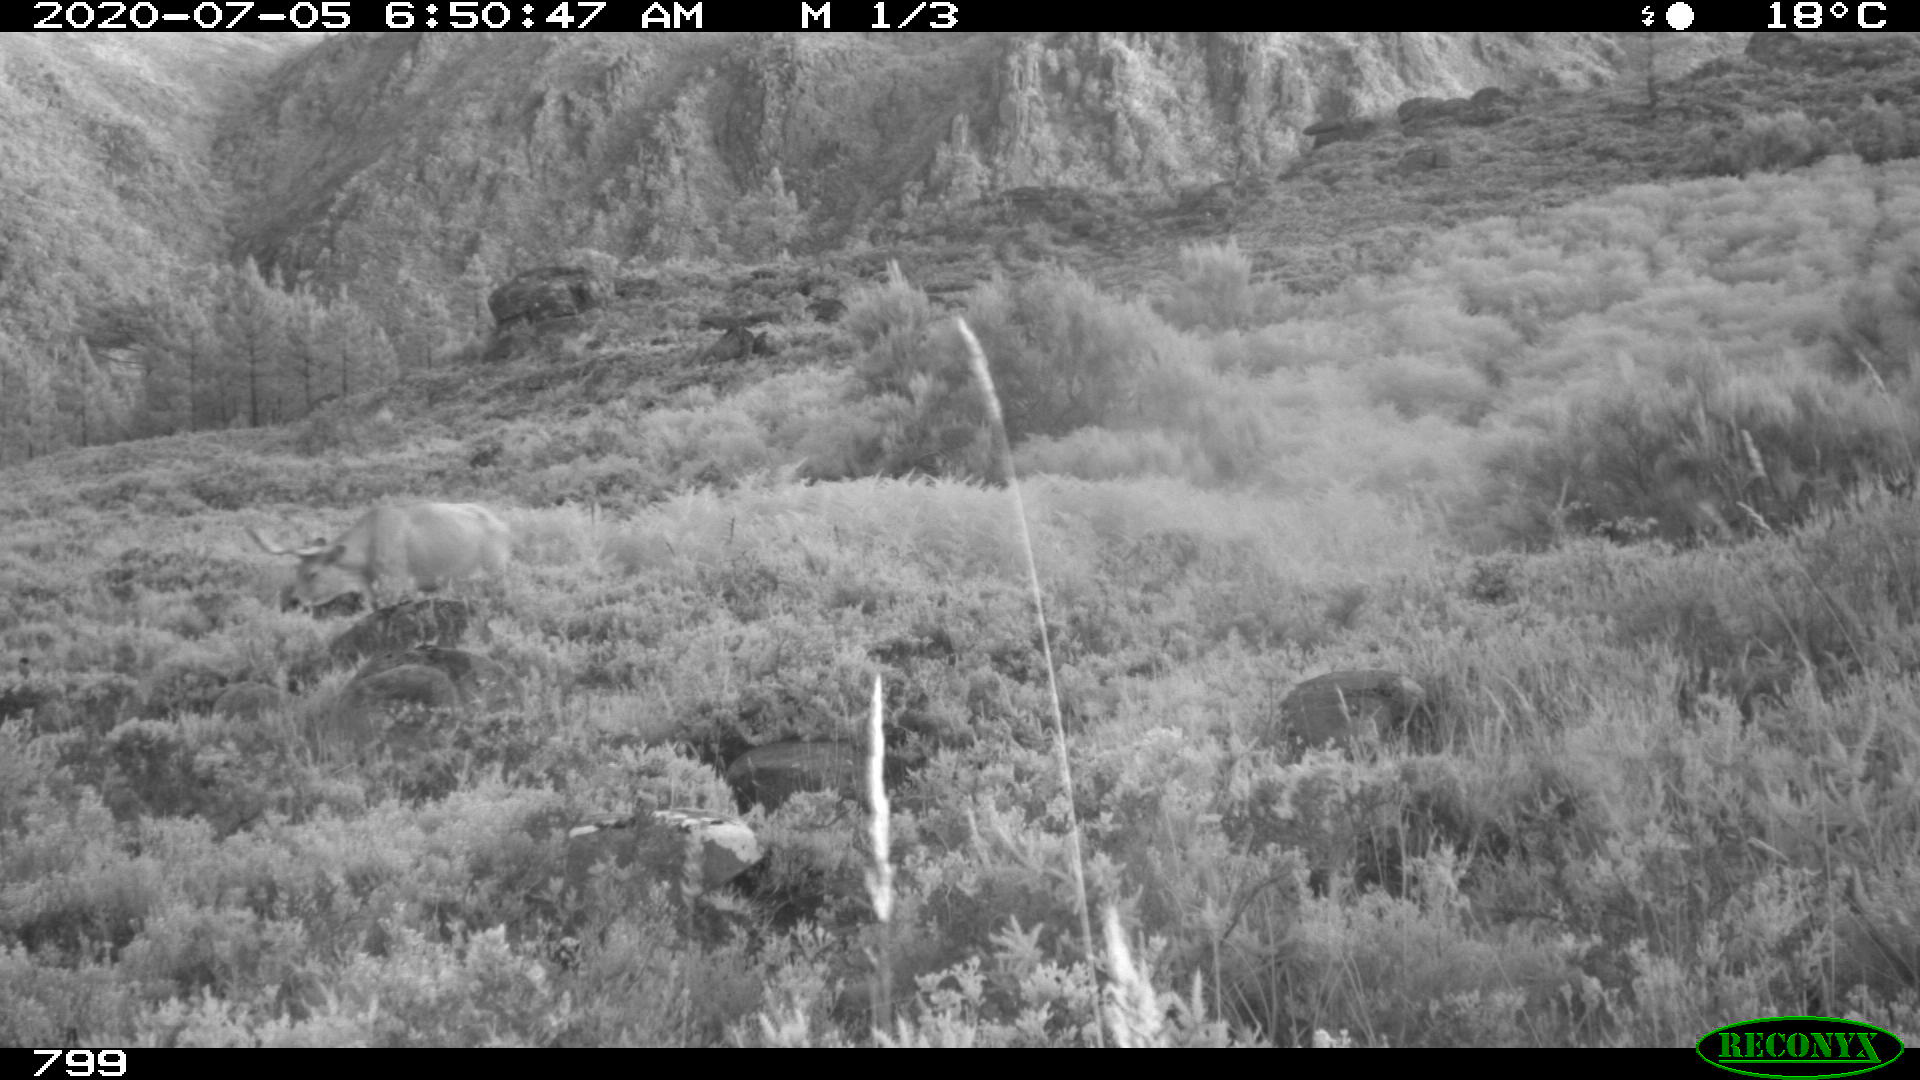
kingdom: Animalia
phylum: Chordata
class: Mammalia
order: Artiodactyla
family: Bovidae
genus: Bos
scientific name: Bos taurus
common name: Domesticated cattle
